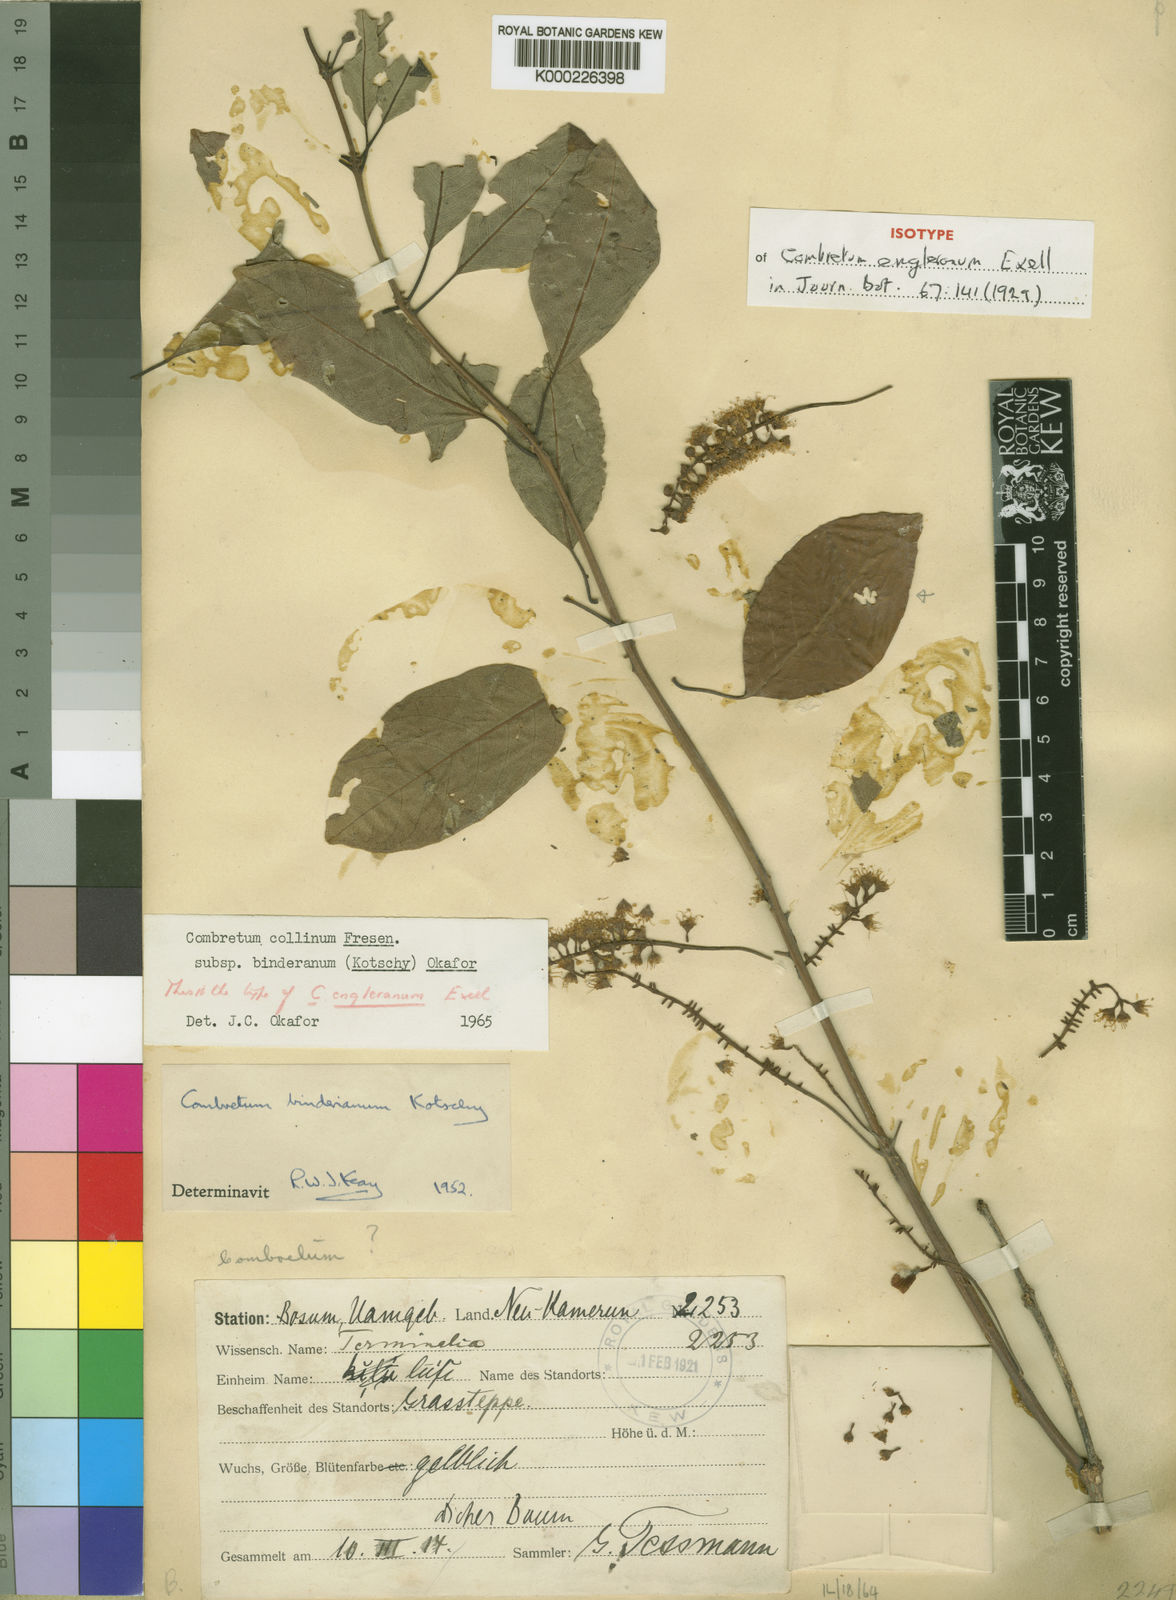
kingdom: Plantae
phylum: Tracheophyta
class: Magnoliopsida
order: Myrtales
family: Combretaceae
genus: Combretum
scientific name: Combretum collinum
